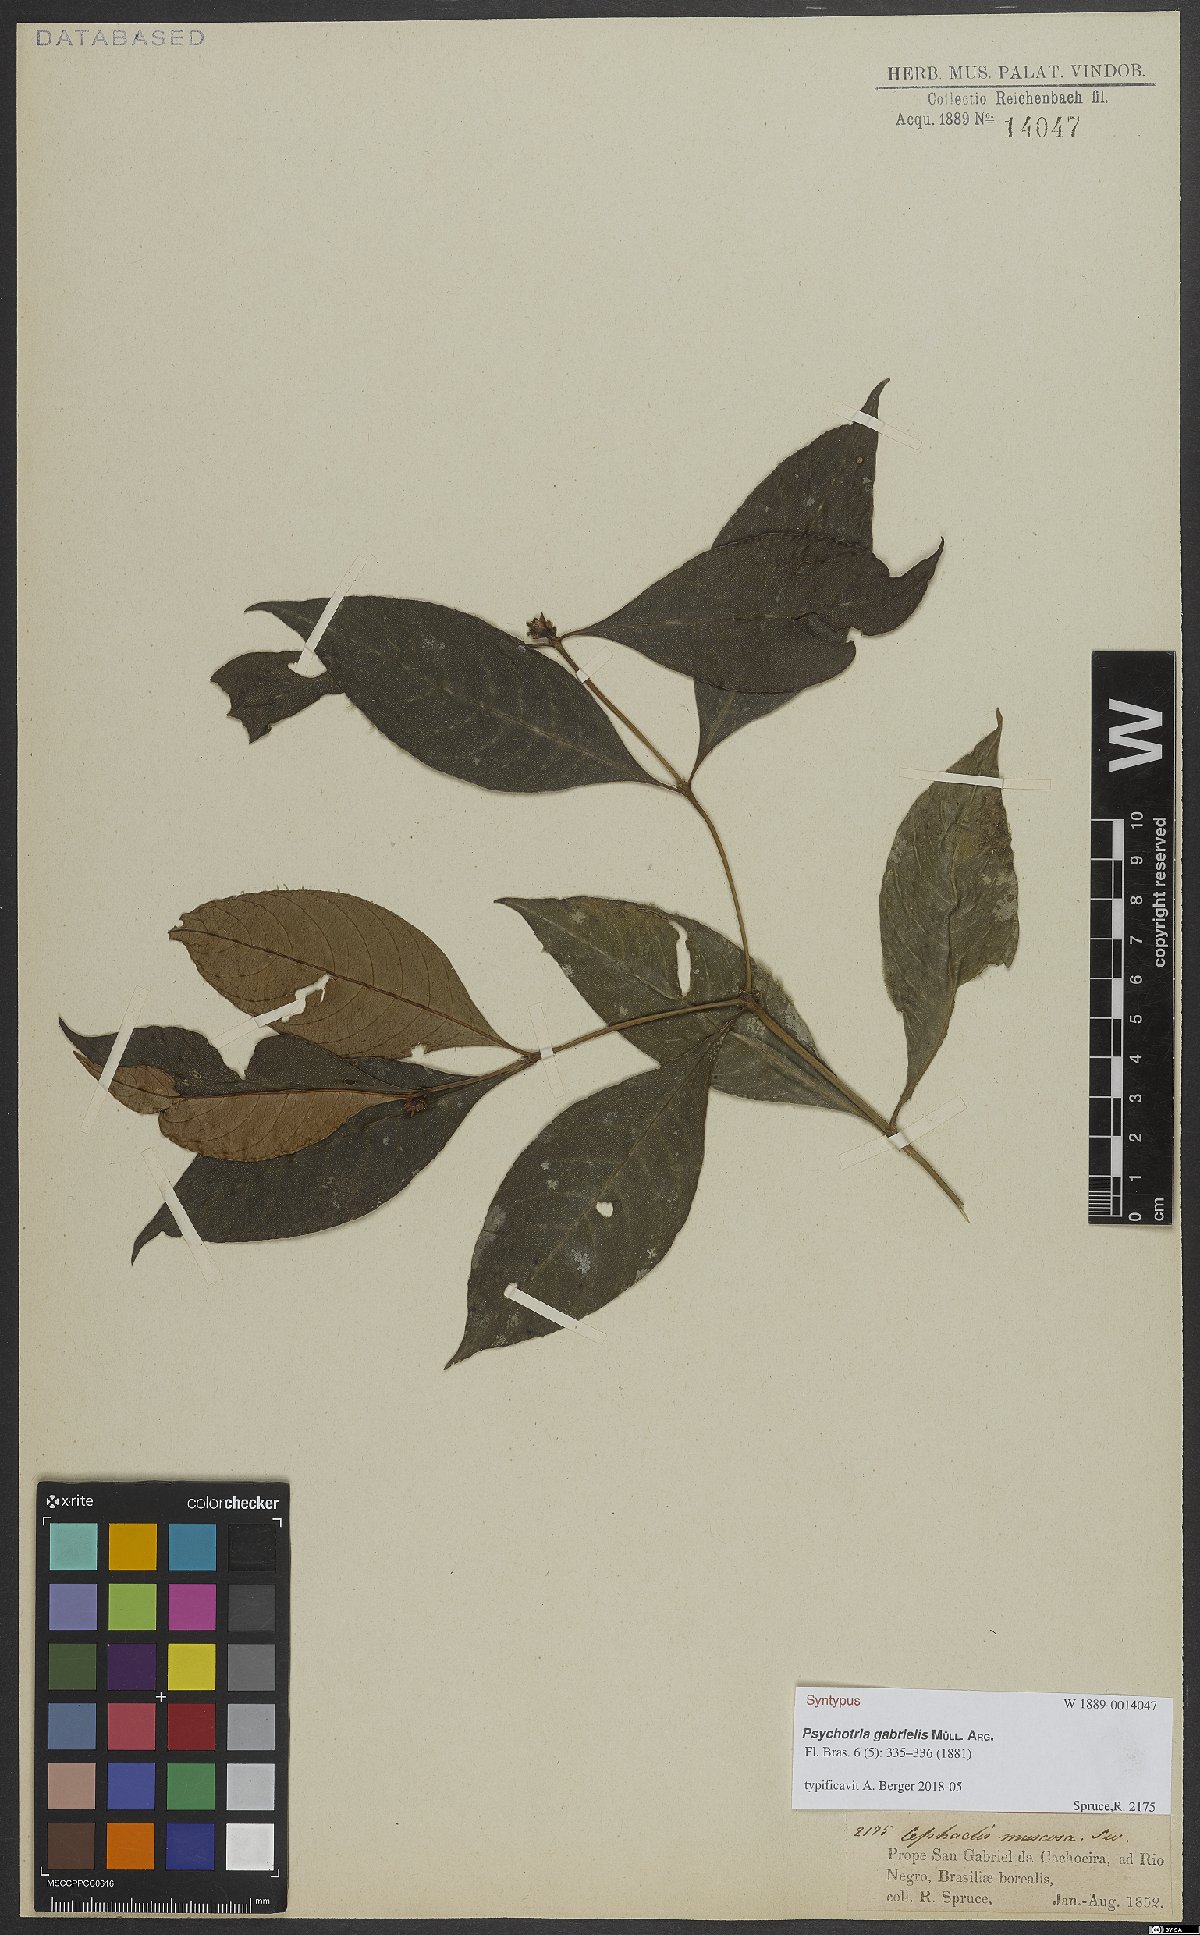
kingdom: Plantae
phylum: Tracheophyta
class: Magnoliopsida
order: Gentianales
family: Rubiaceae
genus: Psychotria
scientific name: Psychotria gabrielis
